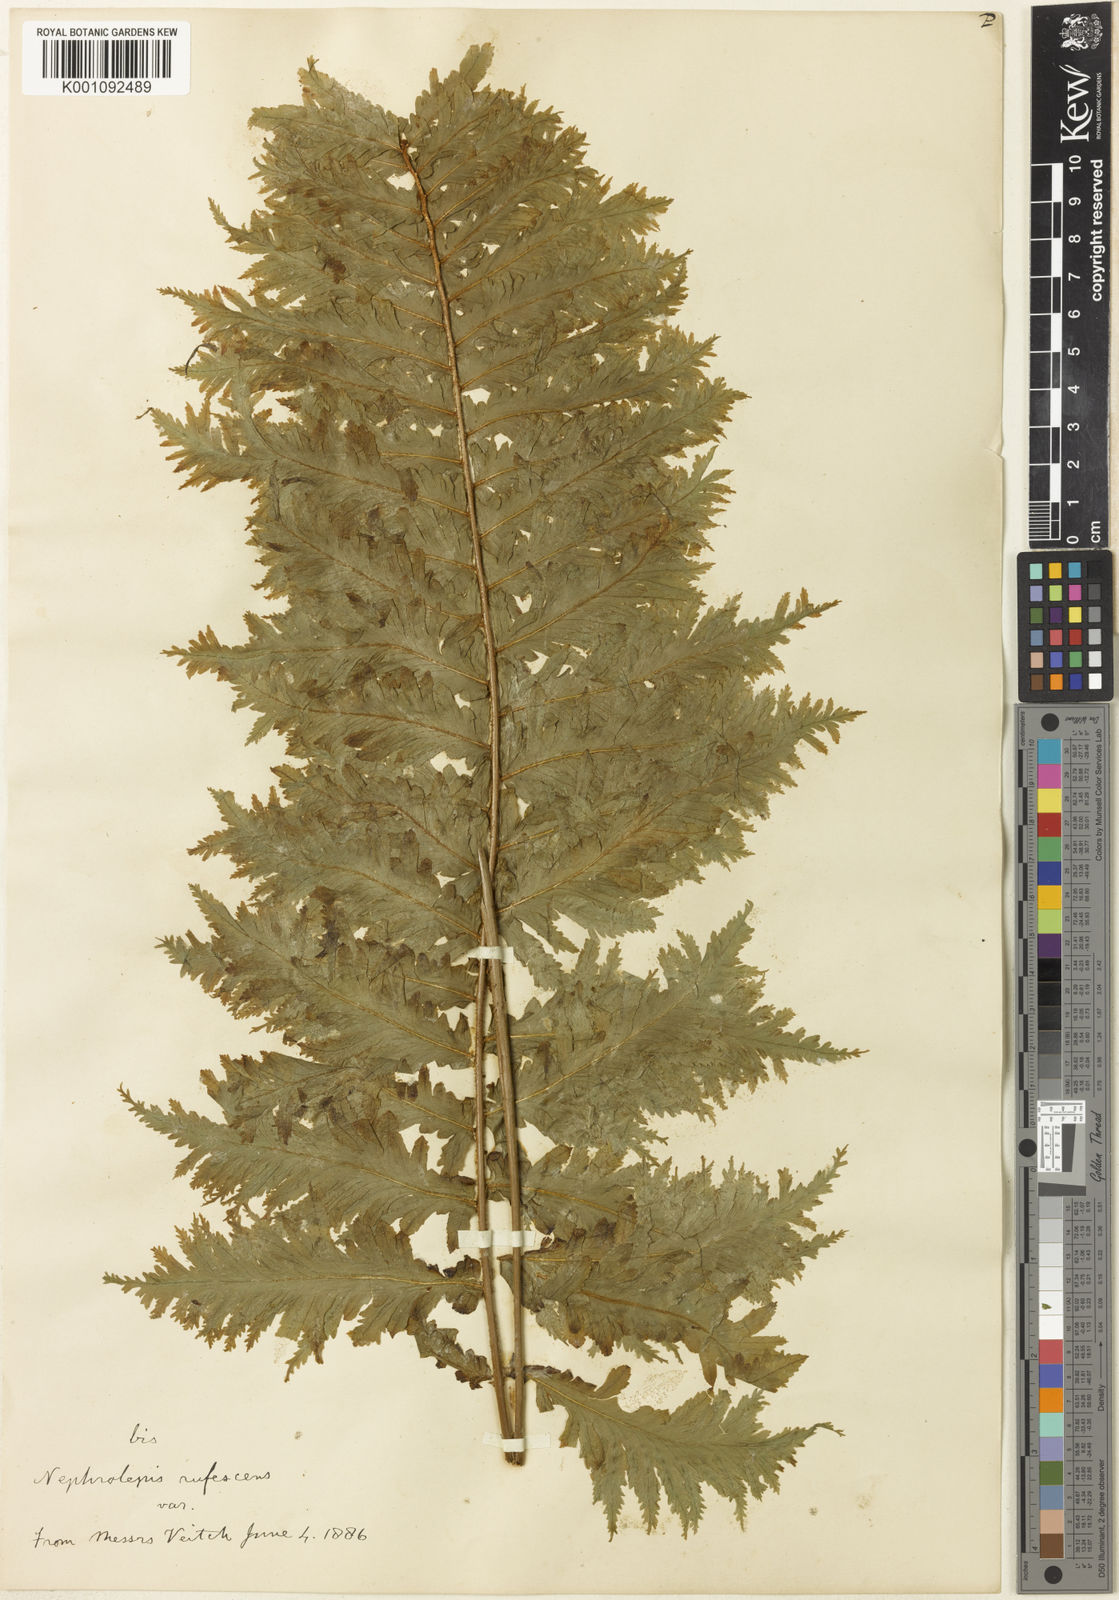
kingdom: Plantae
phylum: Tracheophyta
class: Polypodiopsida
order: Polypodiales
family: Nephrolepidaceae
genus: Nephrolepis
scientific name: Nephrolepis brownii
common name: Asian swordfern
